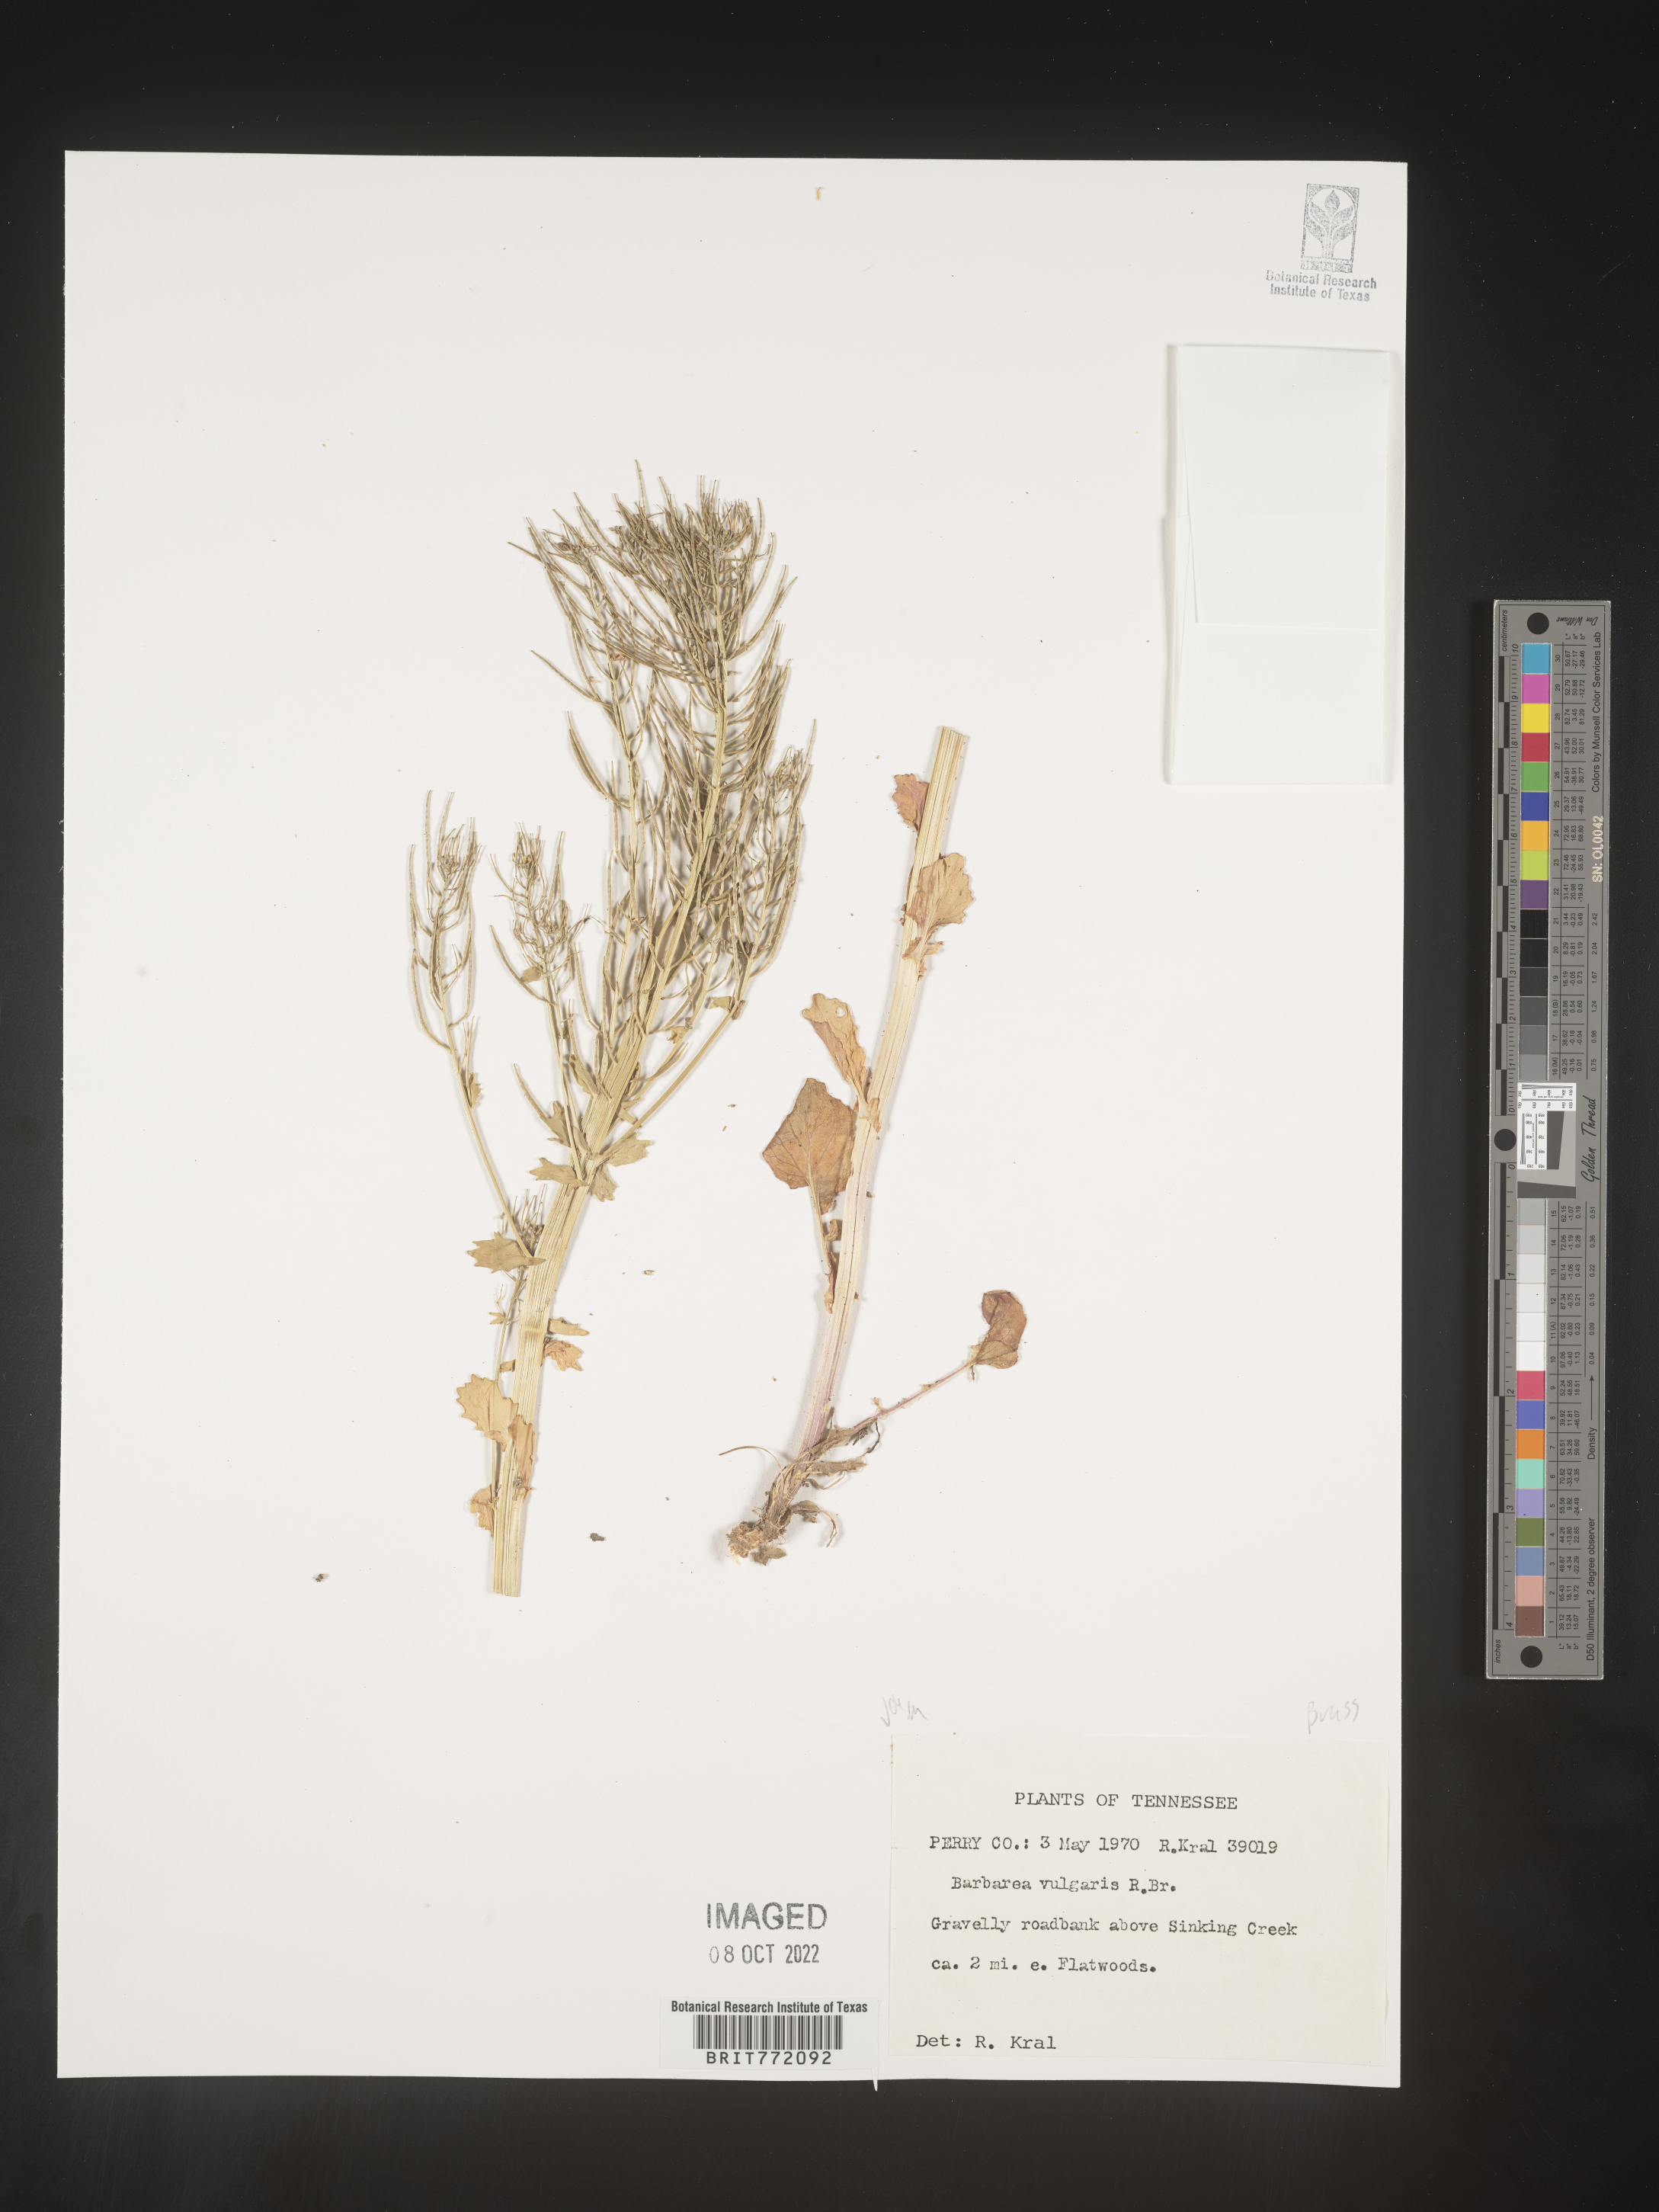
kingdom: Plantae
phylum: Tracheophyta
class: Magnoliopsida
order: Brassicales
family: Brassicaceae
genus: Barbarea
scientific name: Barbarea vulgaris
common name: Cressy-greens
